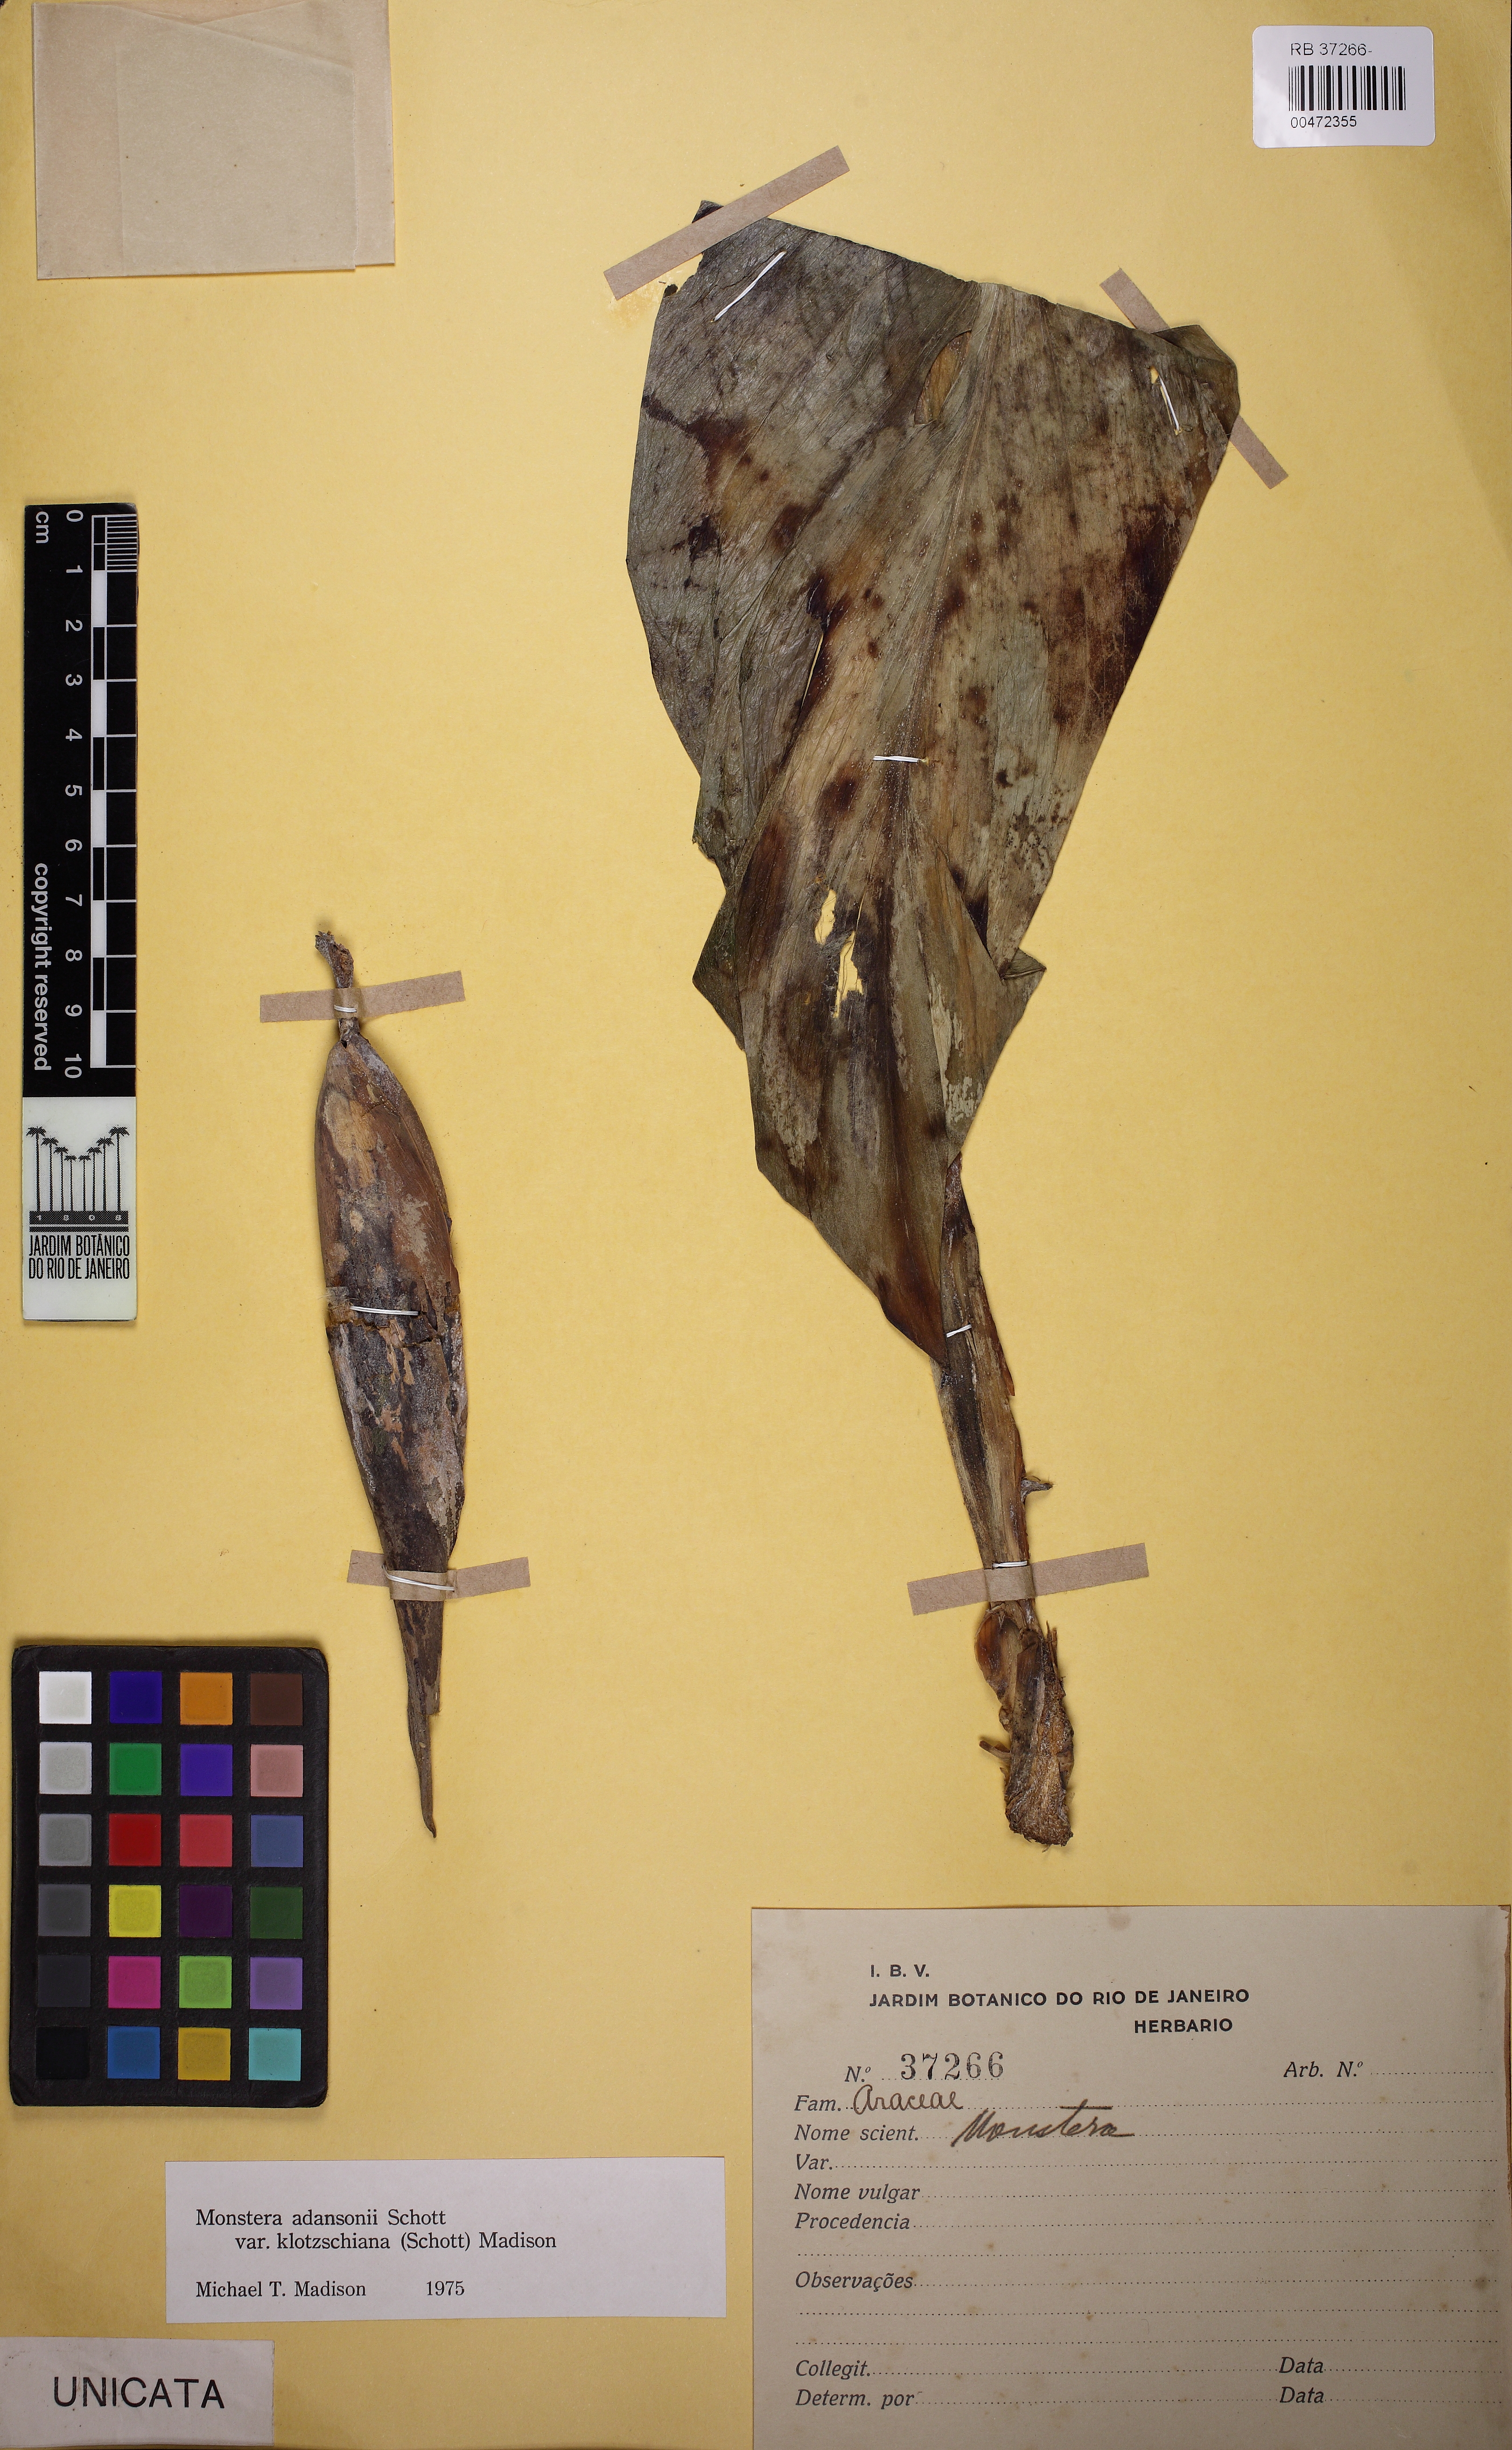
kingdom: Plantae
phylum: Tracheophyta
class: Liliopsida
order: Alismatales
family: Araceae
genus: Monstera
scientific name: Monstera adansonii
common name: Tarovine
